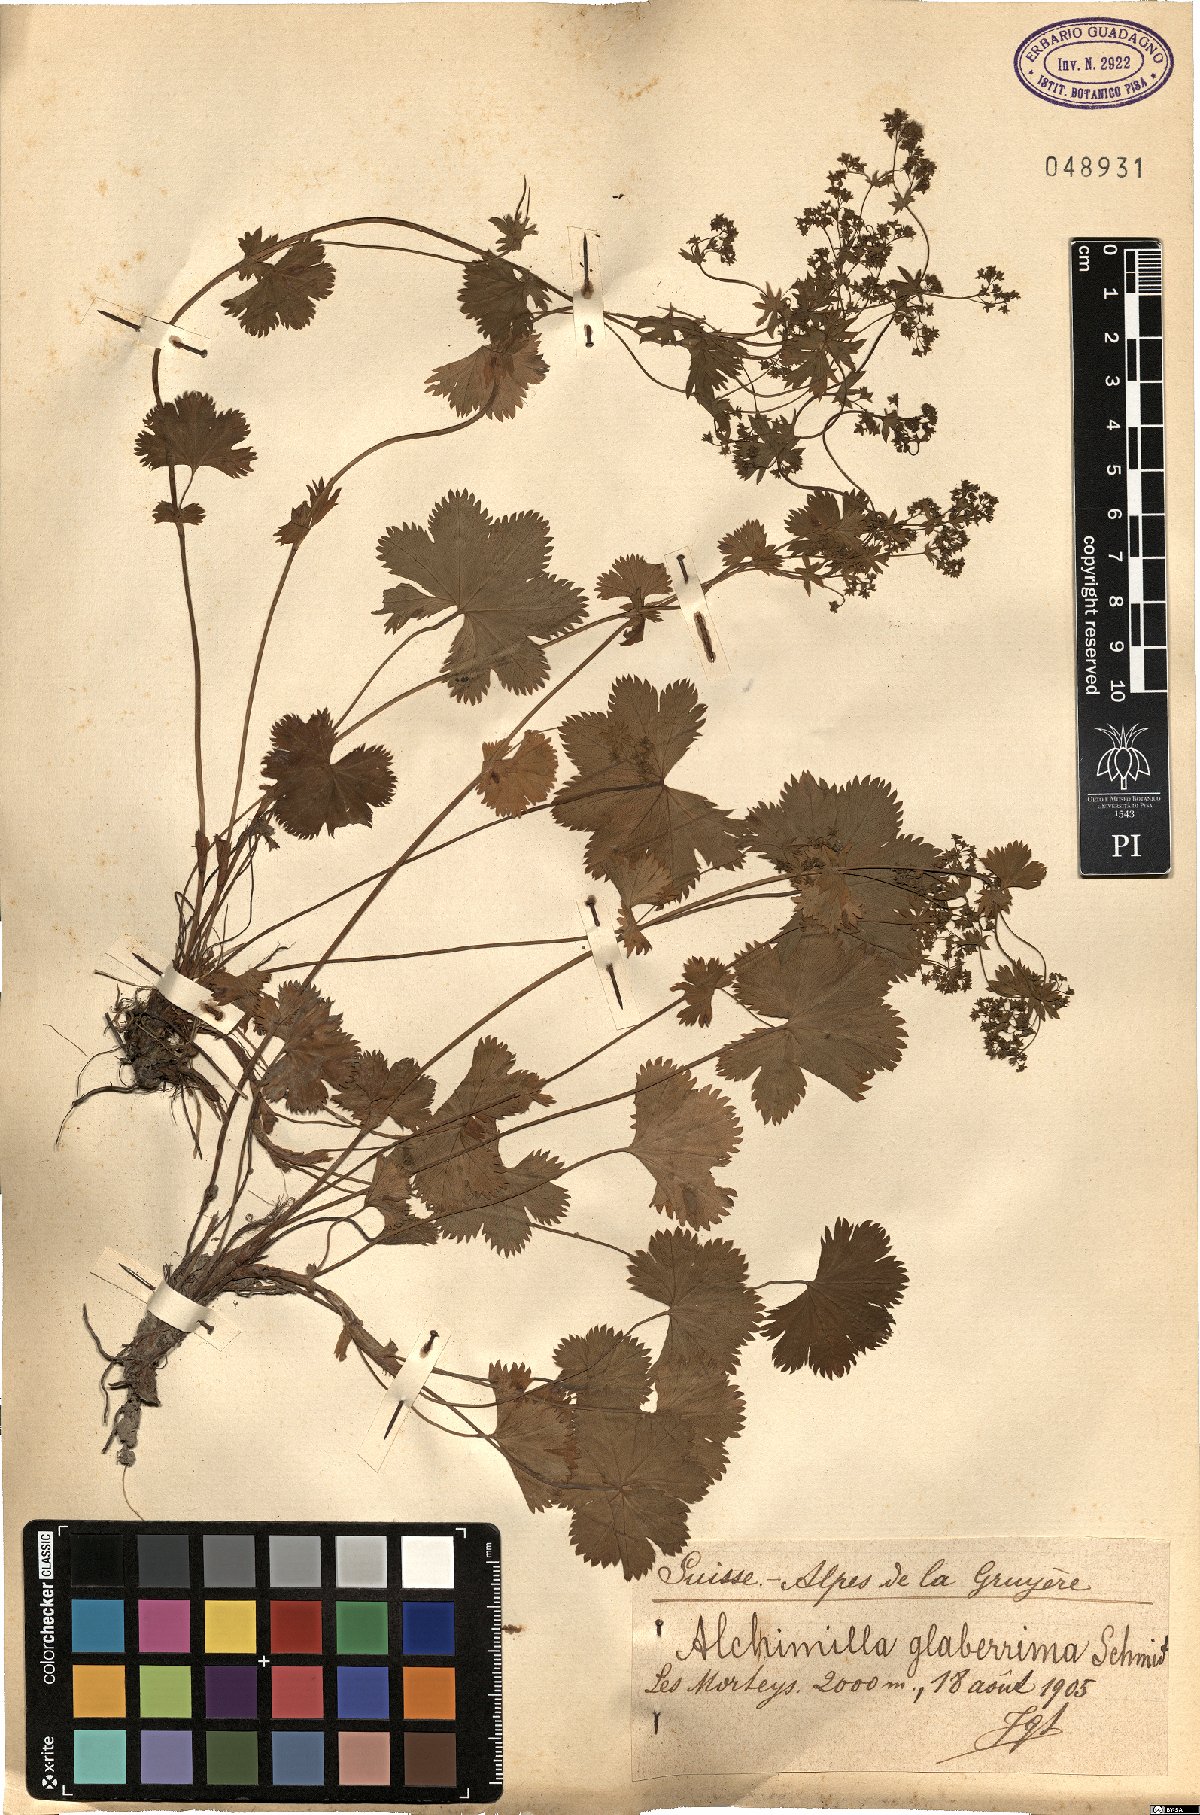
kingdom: Plantae
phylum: Tracheophyta
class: Magnoliopsida
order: Rosales
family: Rosaceae
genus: Alchemilla
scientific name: Alchemilla glaberrima
